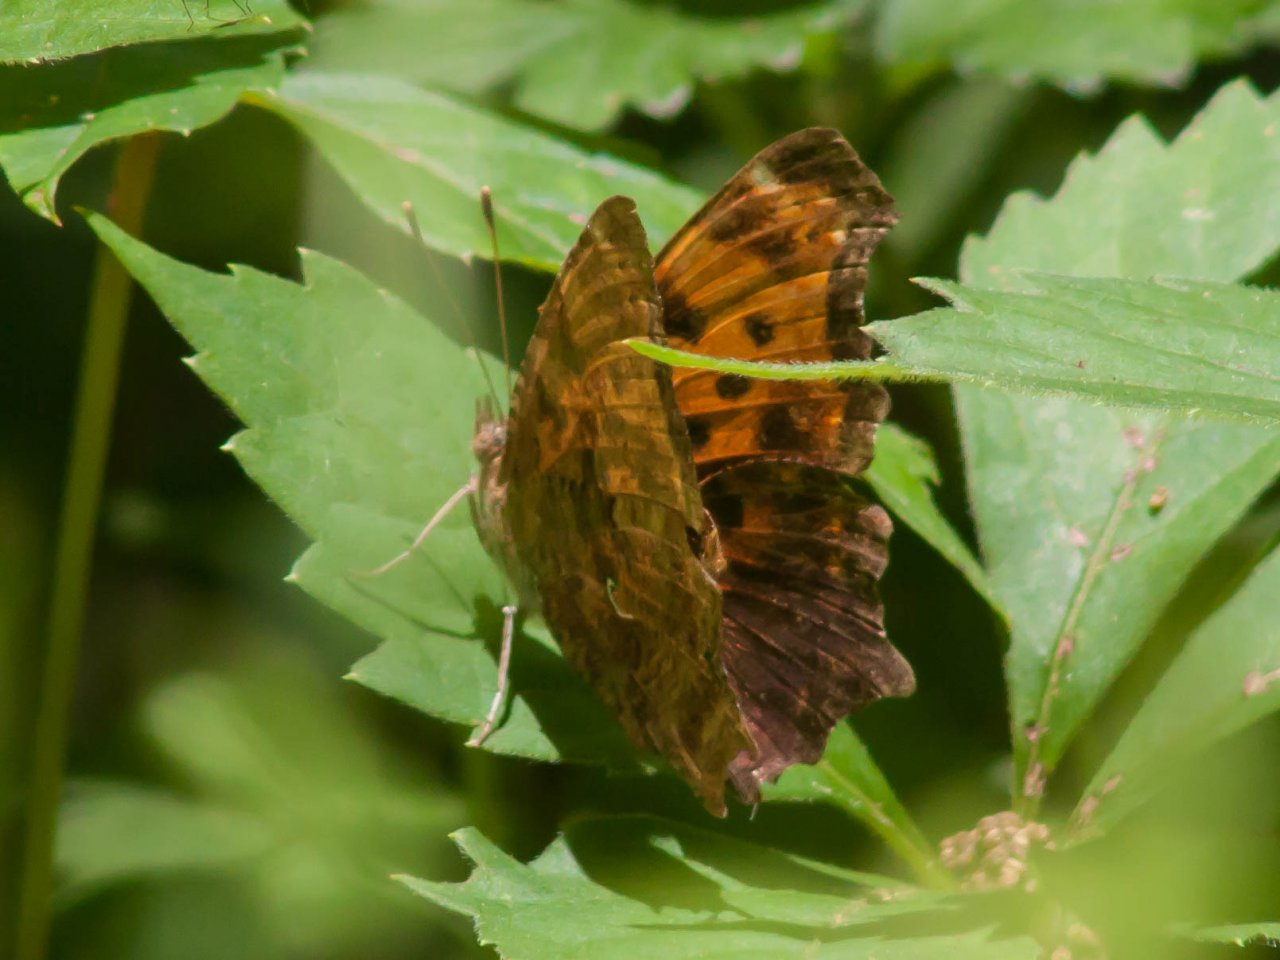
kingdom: Animalia
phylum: Arthropoda
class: Insecta
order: Lepidoptera
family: Nymphalidae
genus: Polygonia
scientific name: Polygonia comma
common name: Eastern Comma
